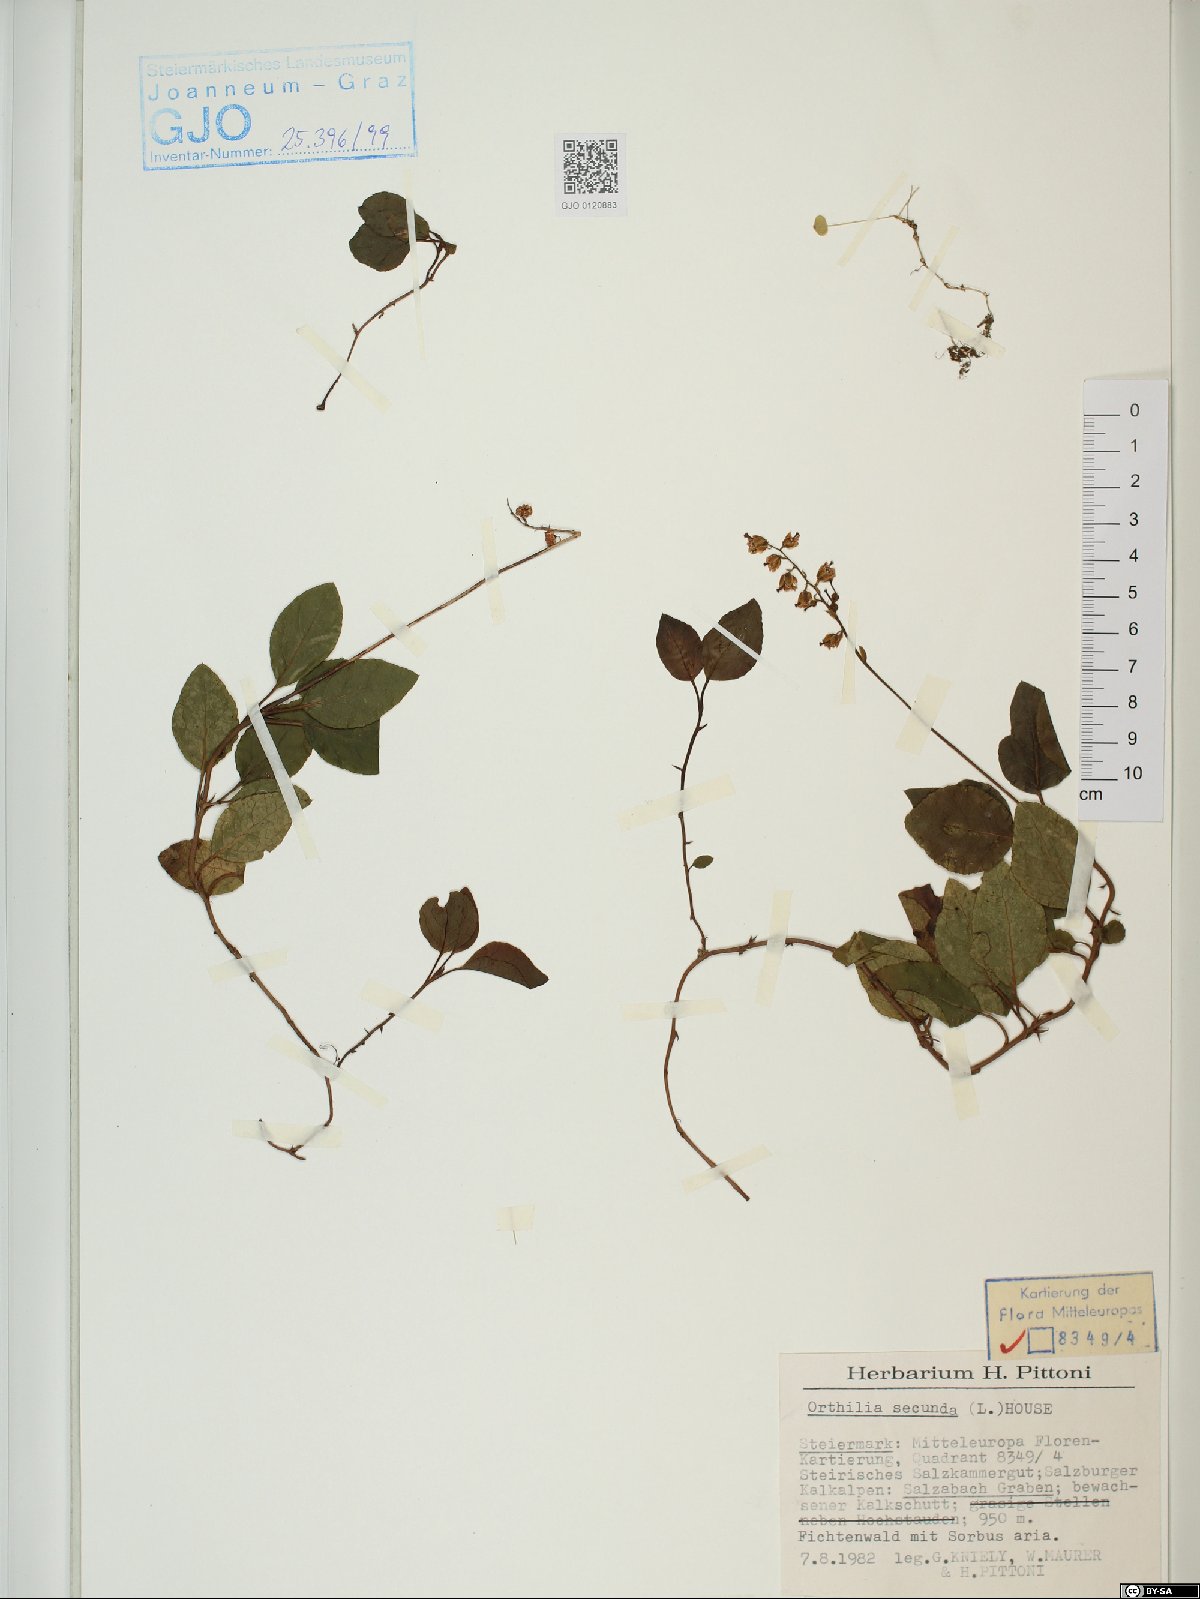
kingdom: Plantae
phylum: Tracheophyta
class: Magnoliopsida
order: Ericales
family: Ericaceae
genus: Orthilia
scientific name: Orthilia secunda
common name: One-sided orthilia
